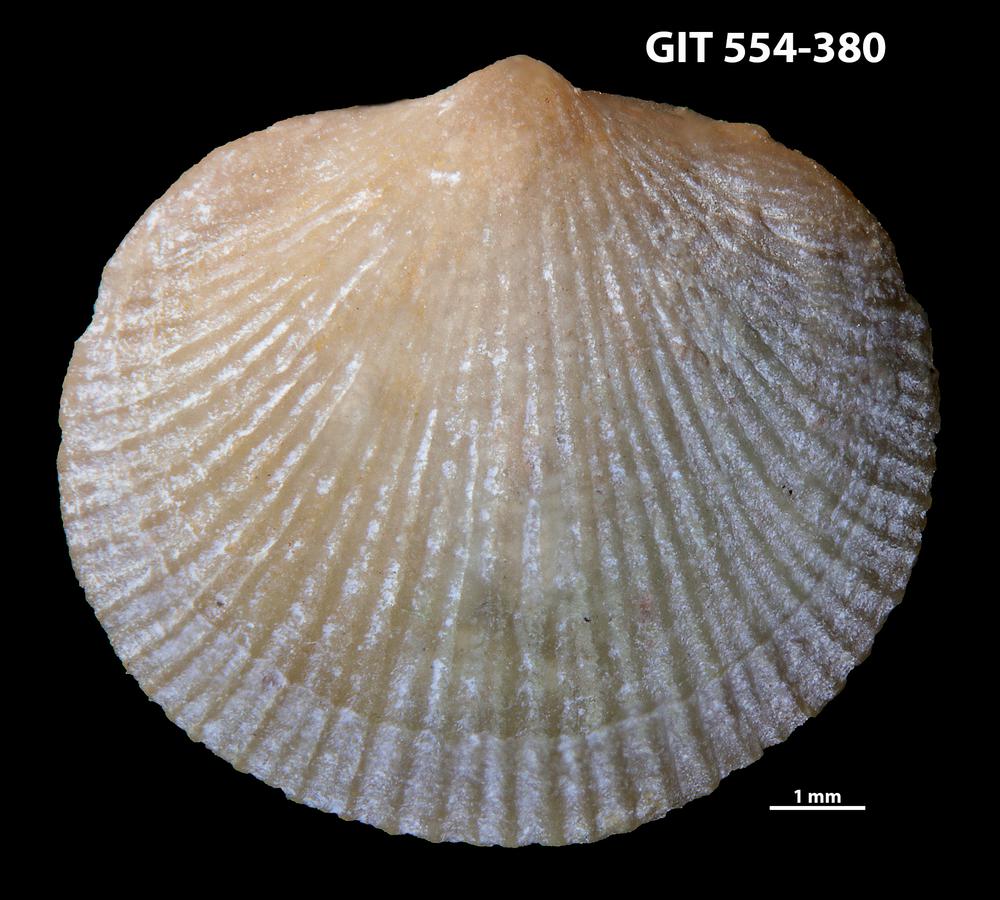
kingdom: Animalia
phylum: Brachiopoda
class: Rhynchonellata
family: Dalmanellidae
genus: Isorthis
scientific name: Isorthis Onniella mediocra
